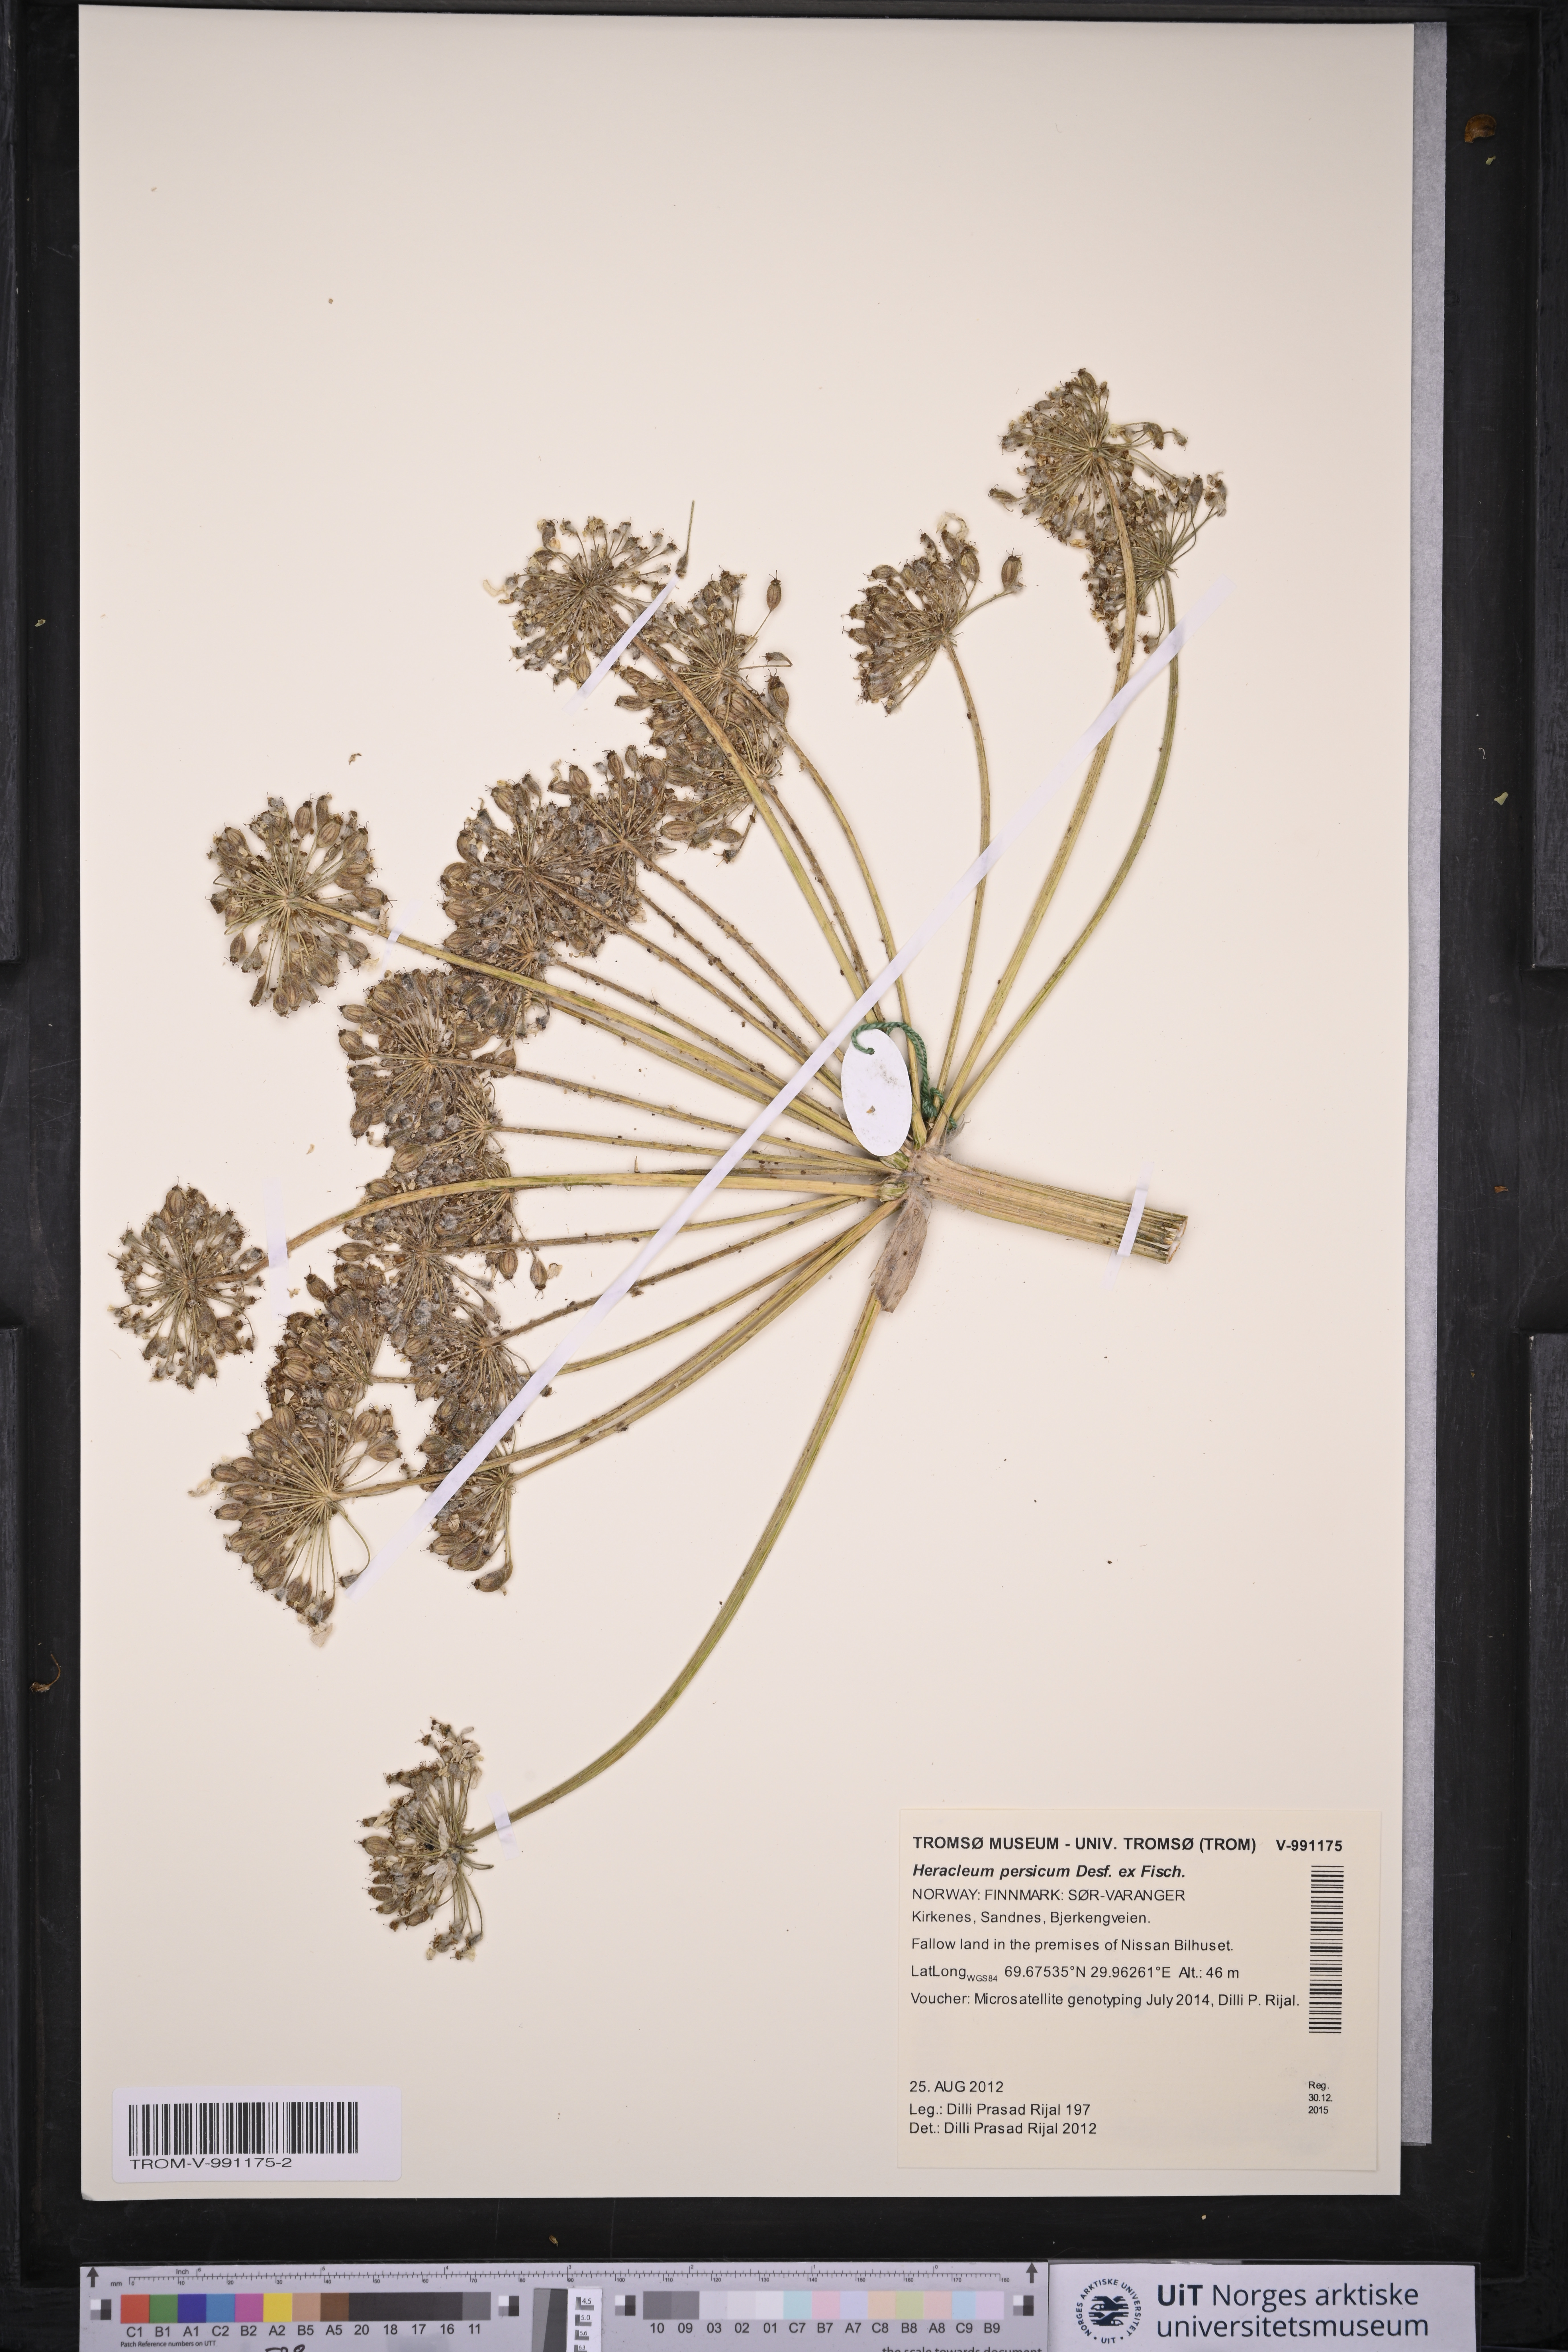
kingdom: Plantae
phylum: Tracheophyta
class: Magnoliopsida
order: Apiales
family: Apiaceae
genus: Heracleum
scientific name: Heracleum persicum
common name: Persian hogweed
